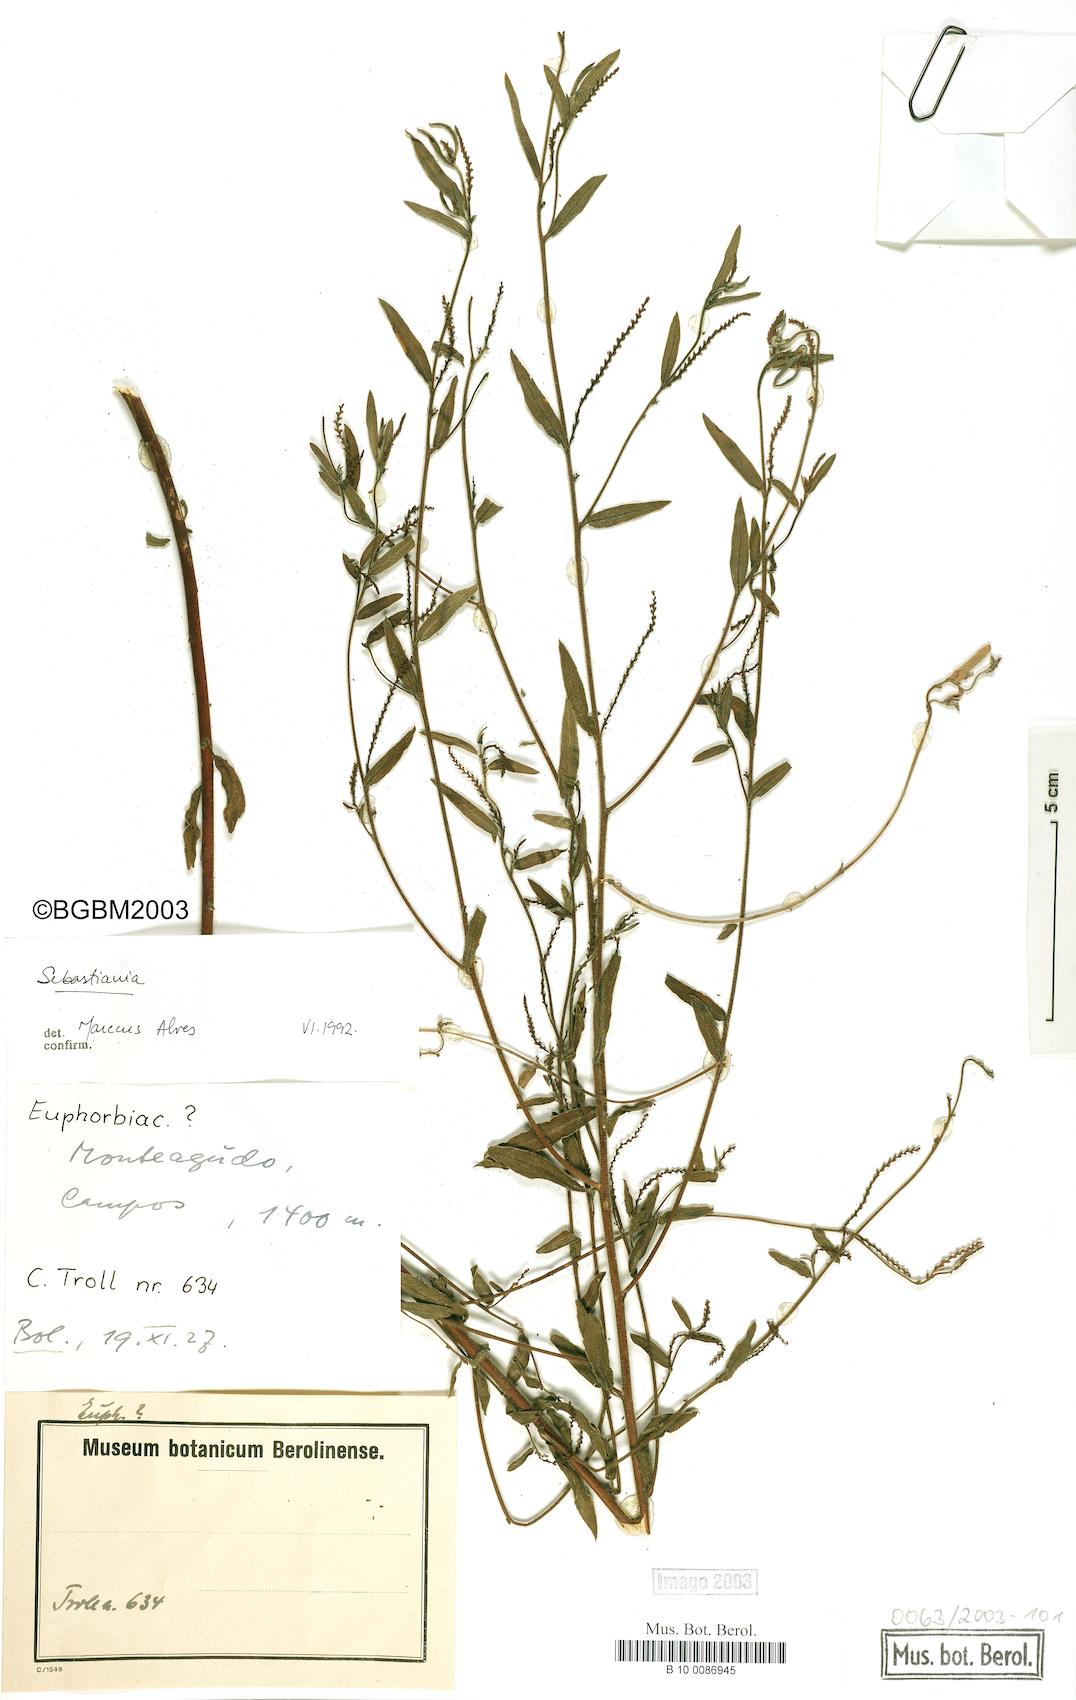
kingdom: Plantae
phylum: Tracheophyta
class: Magnoliopsida
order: Malpighiales
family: Euphorbiaceae
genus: Microstachys
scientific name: Microstachys hispida
